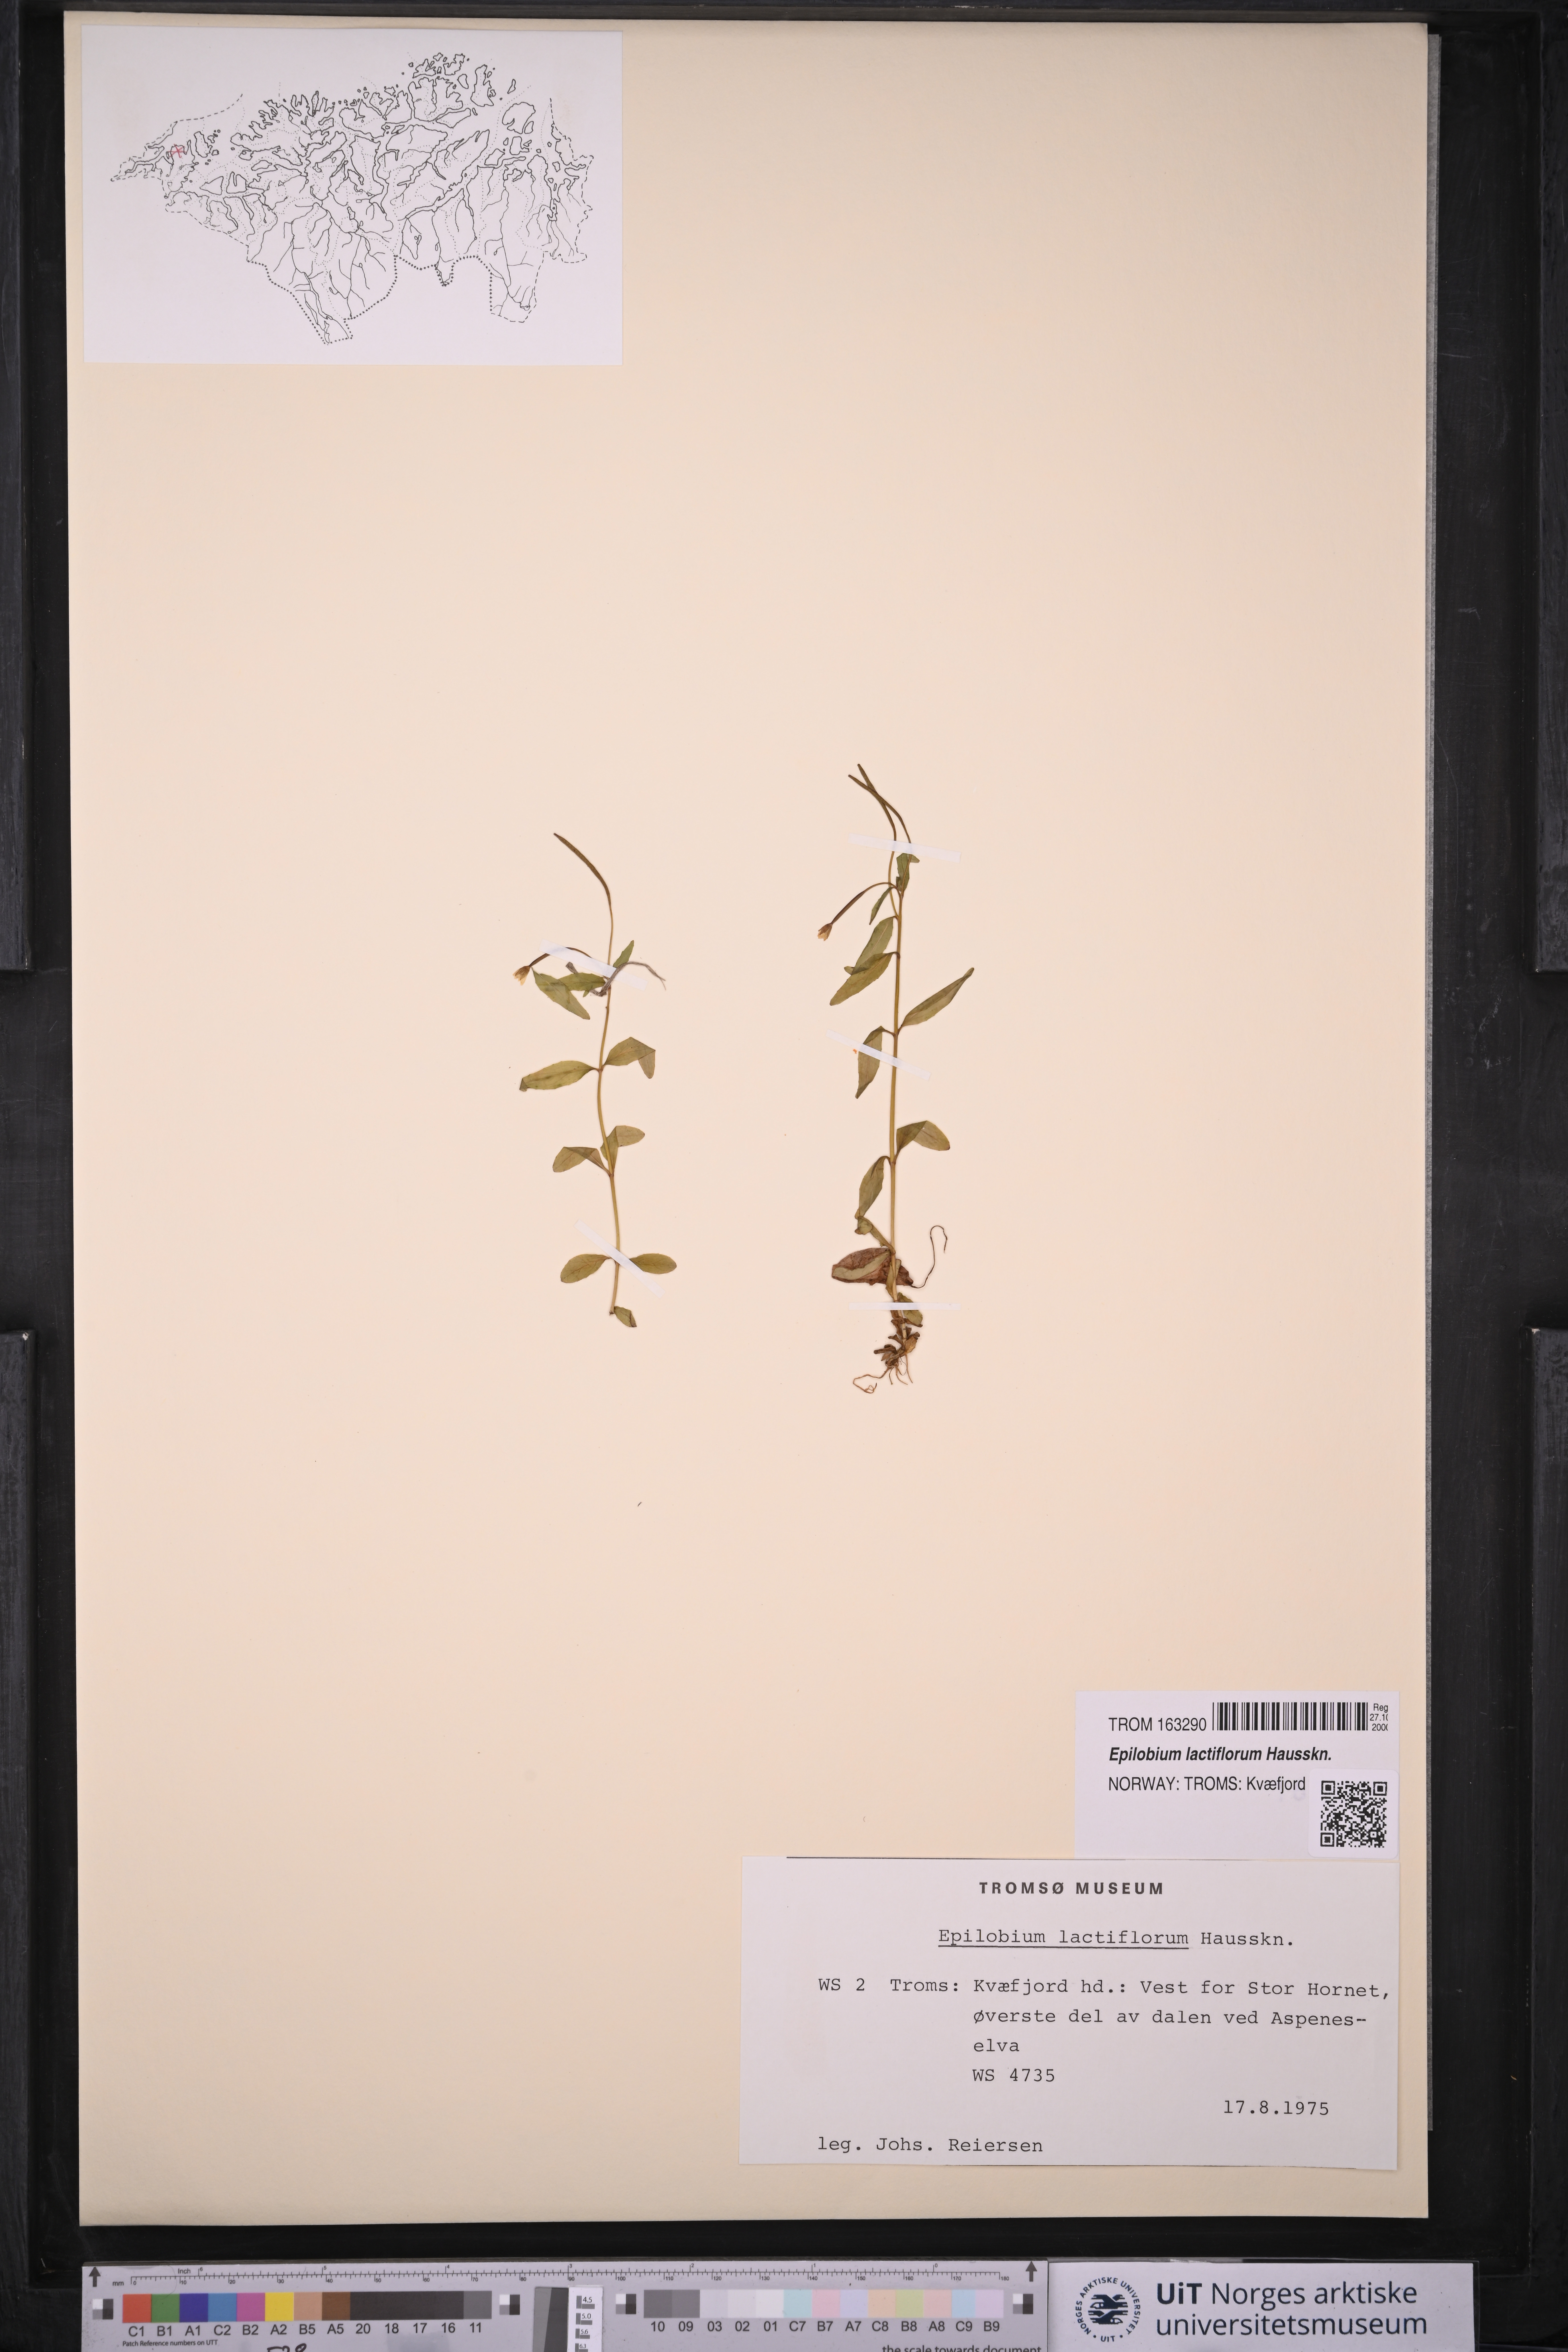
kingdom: Plantae
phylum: Tracheophyta
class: Magnoliopsida
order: Myrtales
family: Onagraceae
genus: Epilobium
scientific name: Epilobium lactiflorum
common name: Milkflower willowherb
